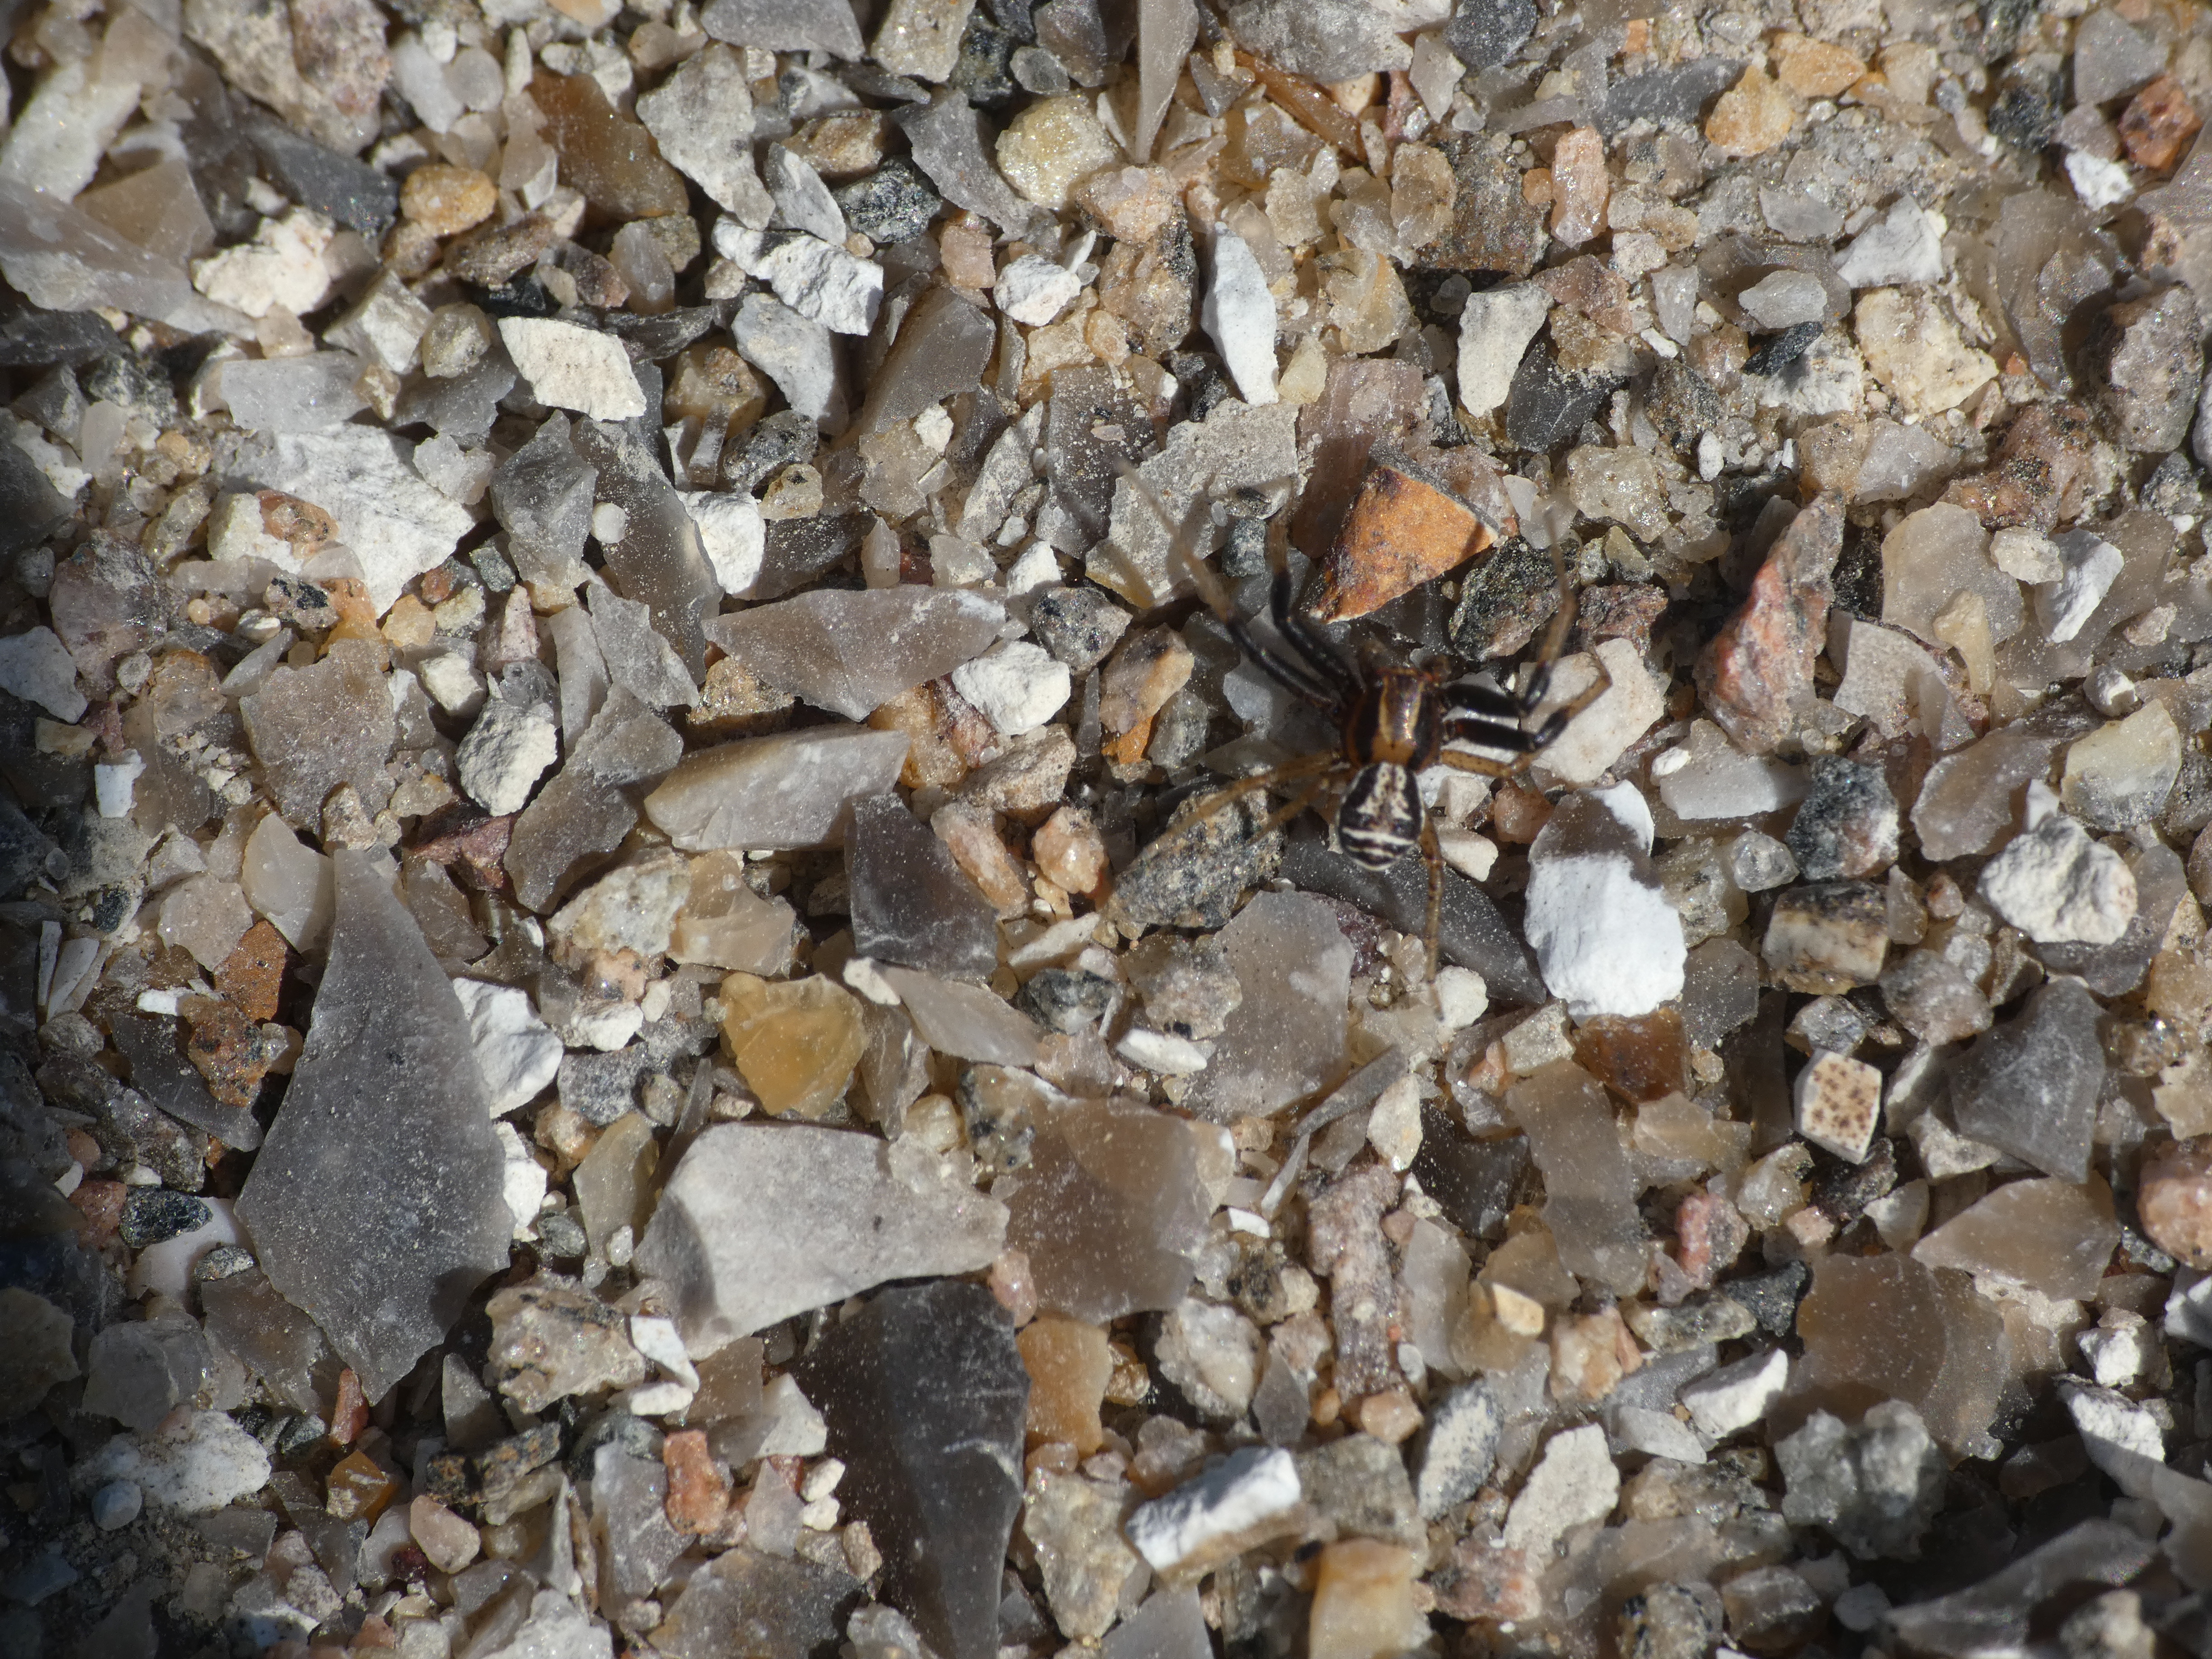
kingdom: Animalia
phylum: Arthropoda
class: Arachnida
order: Araneae
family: Thomisidae
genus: Xysticus
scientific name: Xysticus ulmi
